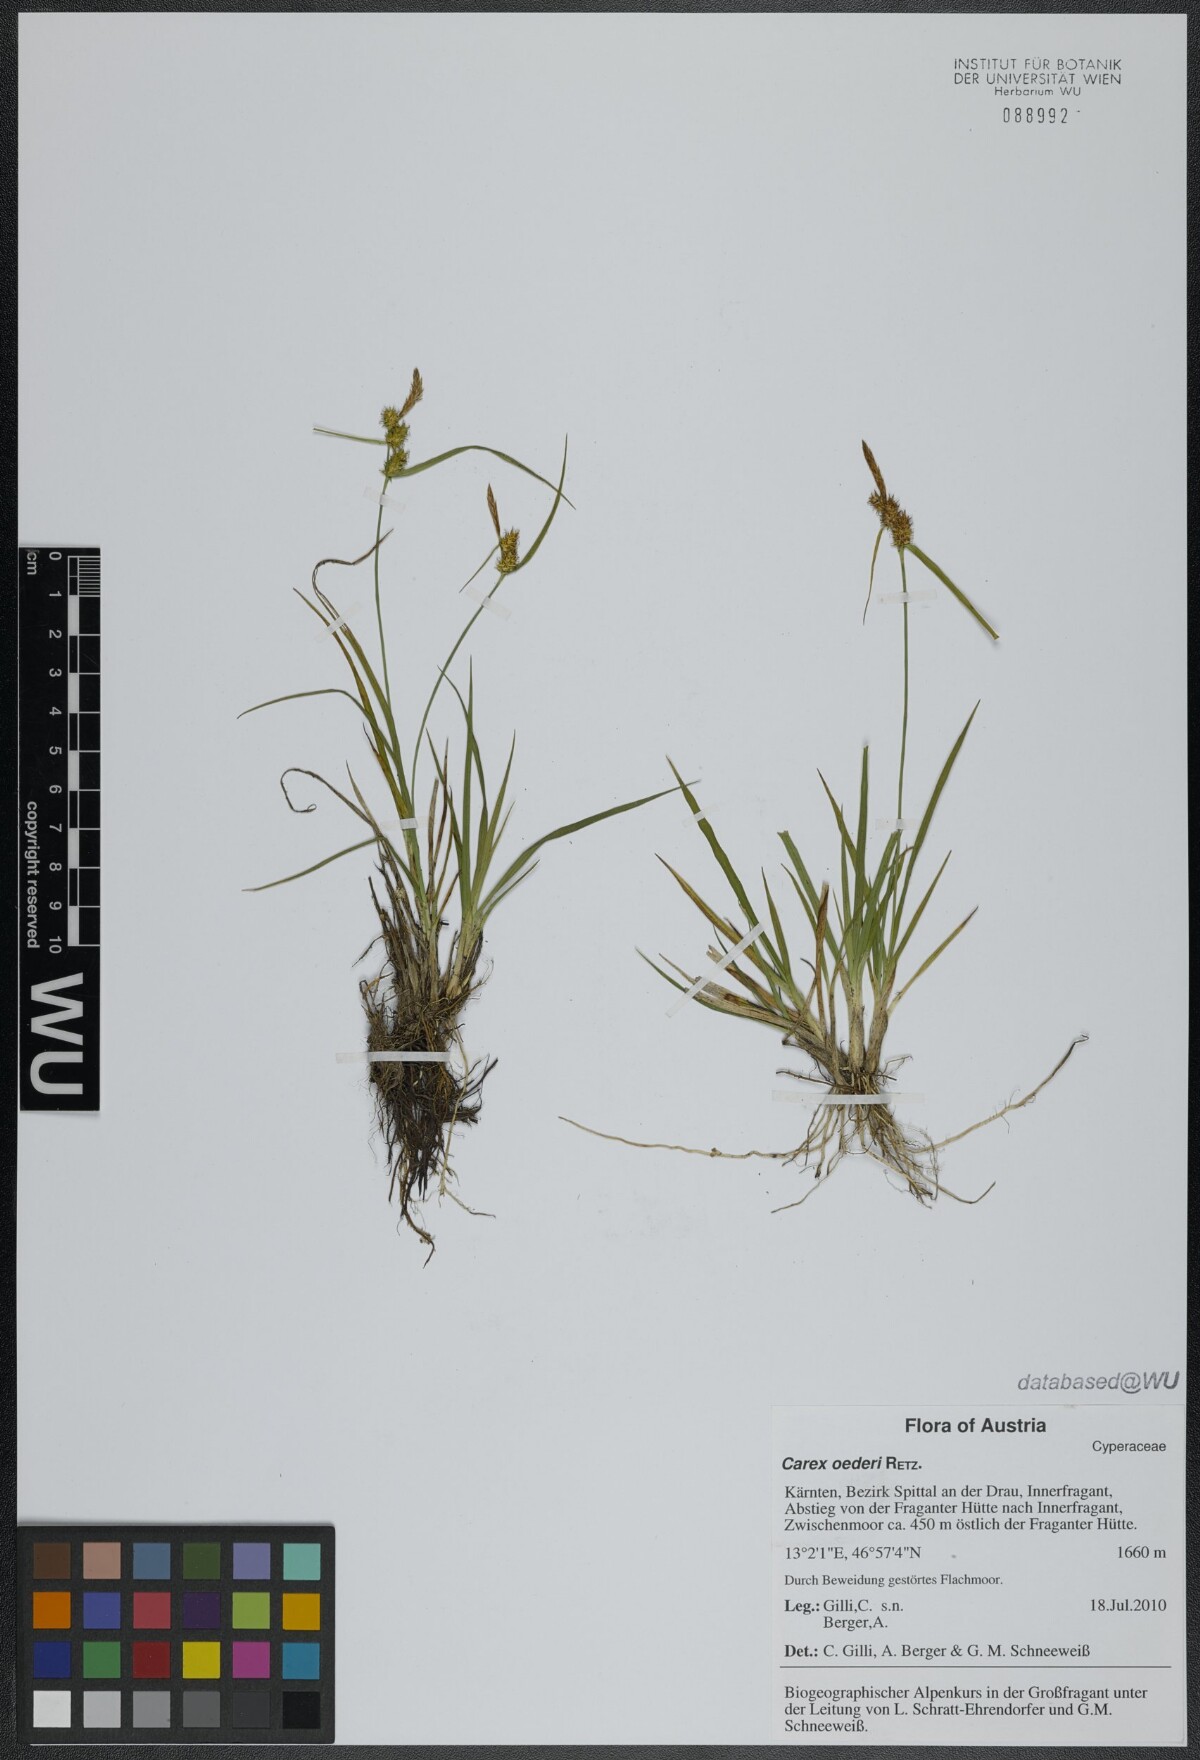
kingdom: Plantae
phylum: Tracheophyta
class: Liliopsida
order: Poales
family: Cyperaceae
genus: Carex
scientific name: Carex oederi
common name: Common & small-fruited yellow-sedge
